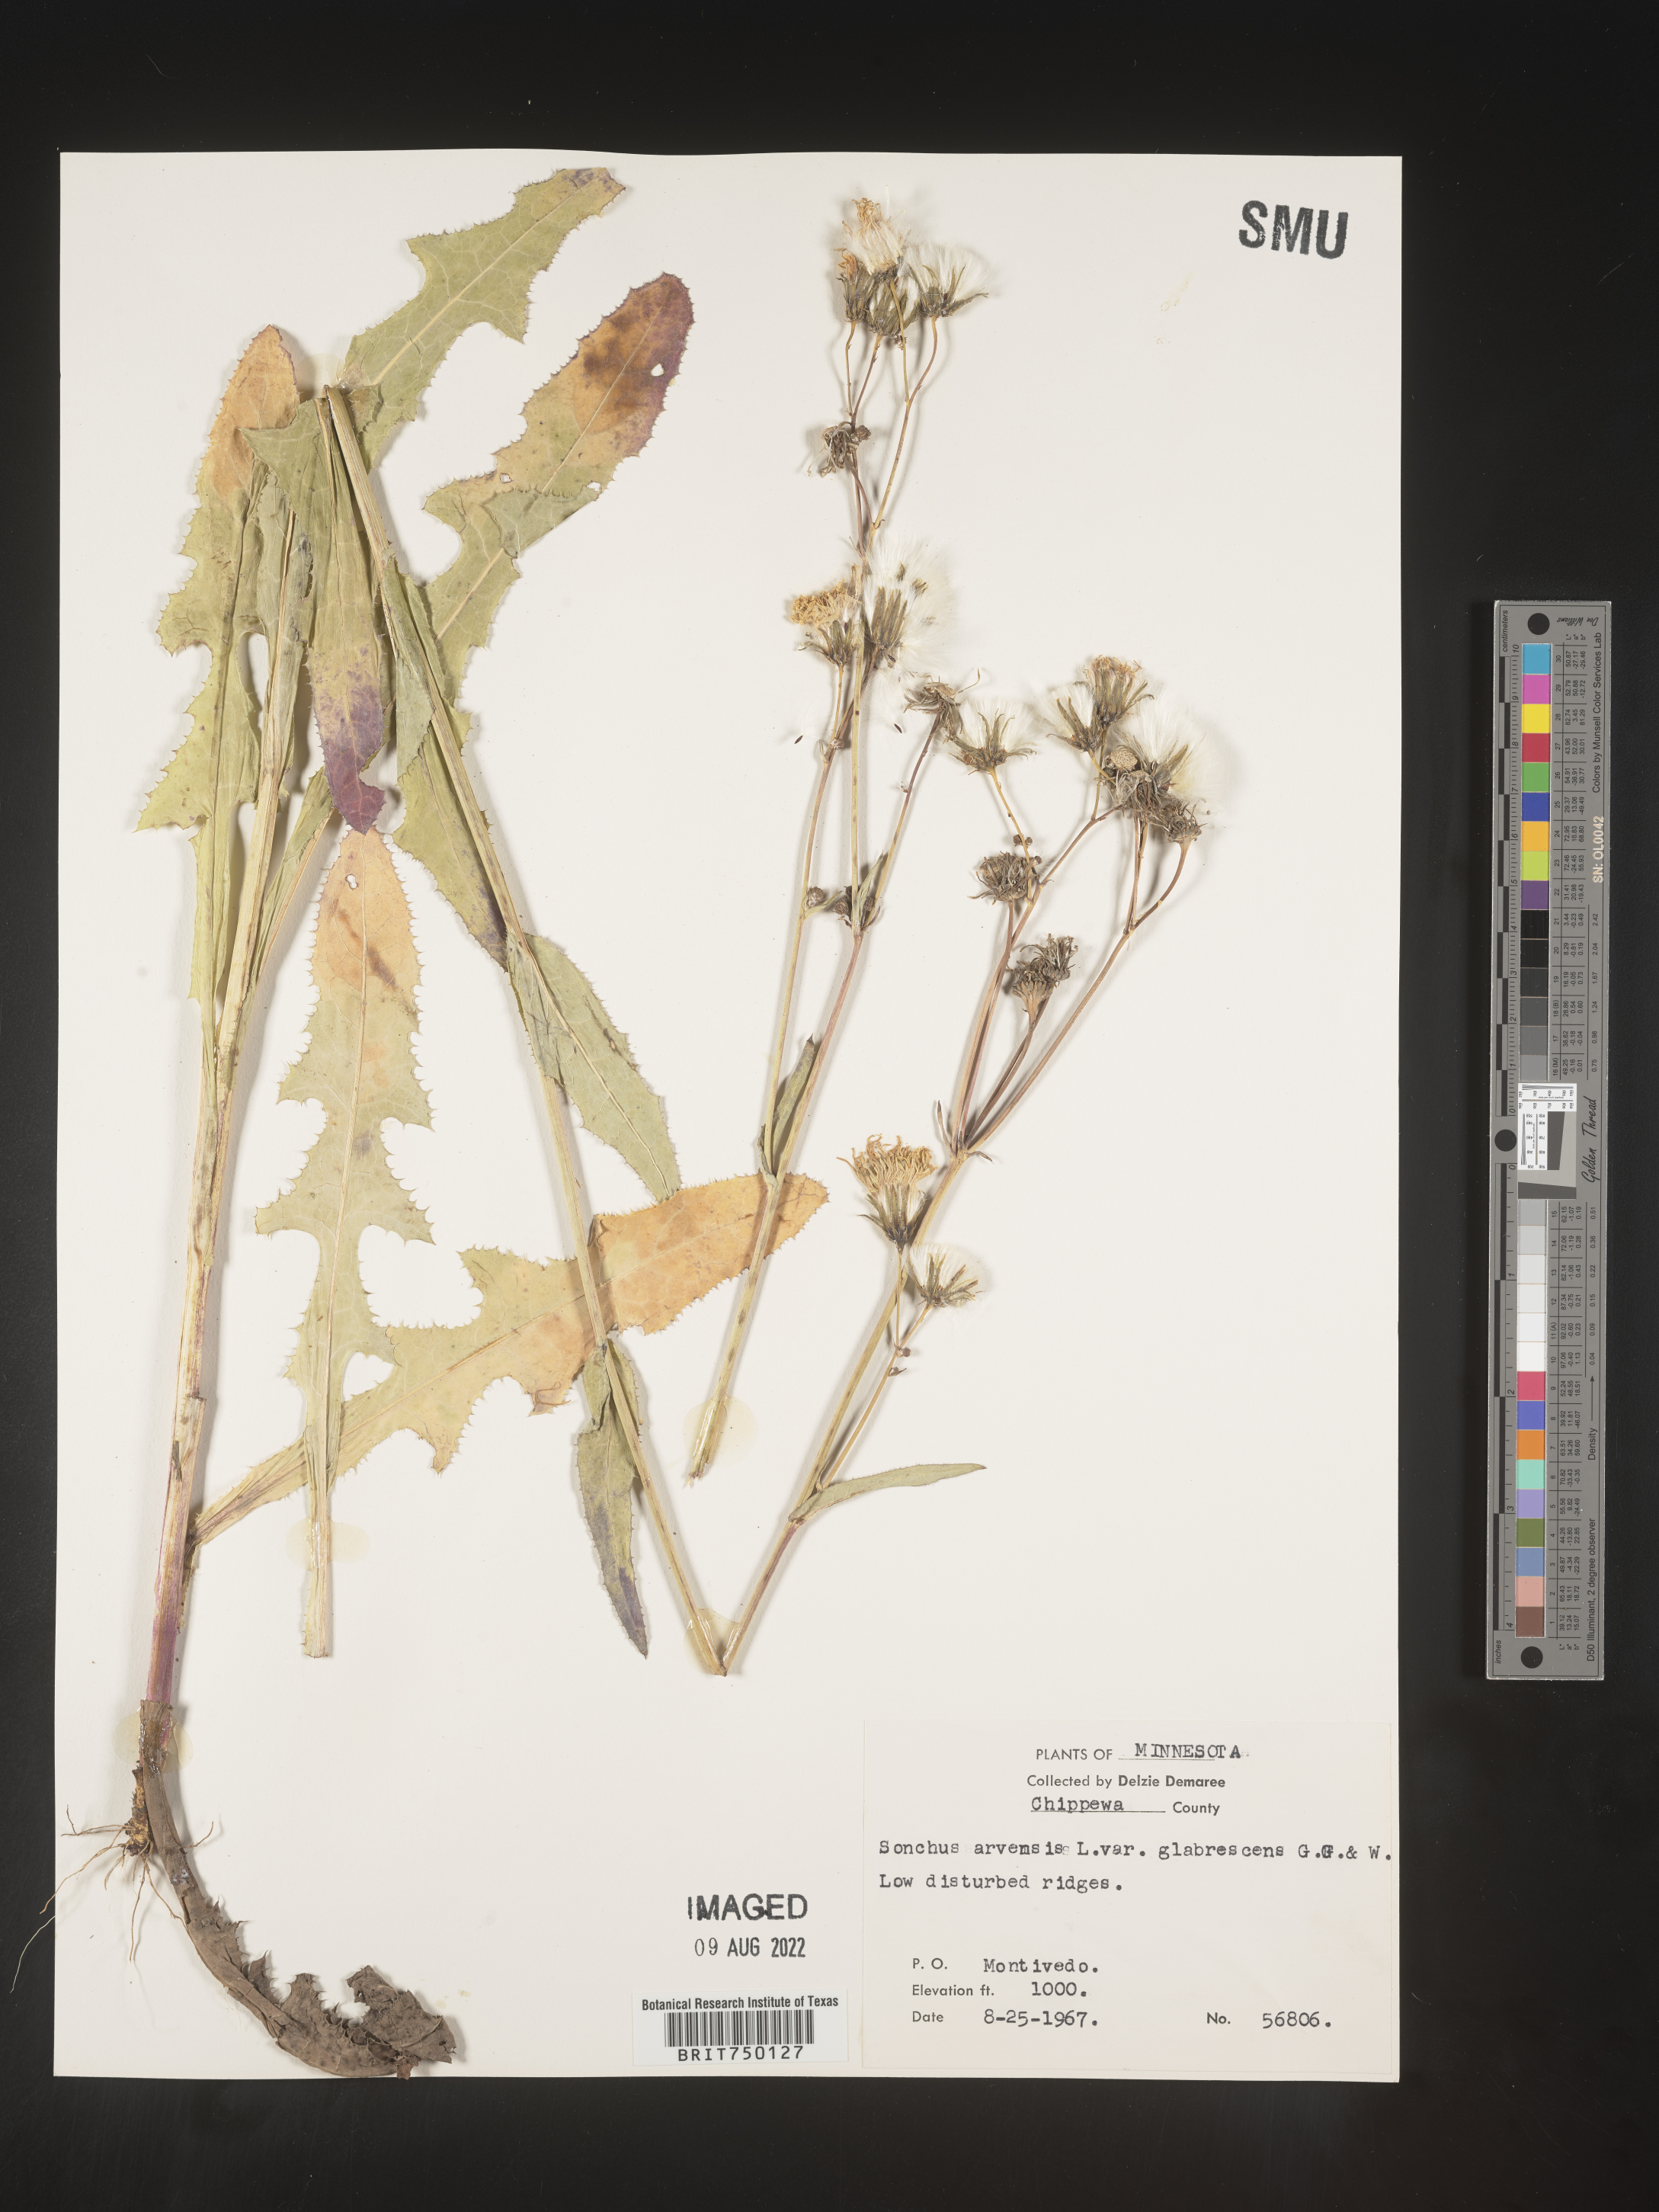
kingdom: Plantae
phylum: Tracheophyta
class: Magnoliopsida
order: Asterales
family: Asteraceae
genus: Sonchus
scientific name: Sonchus arvensis
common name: Perennial sow-thistle
